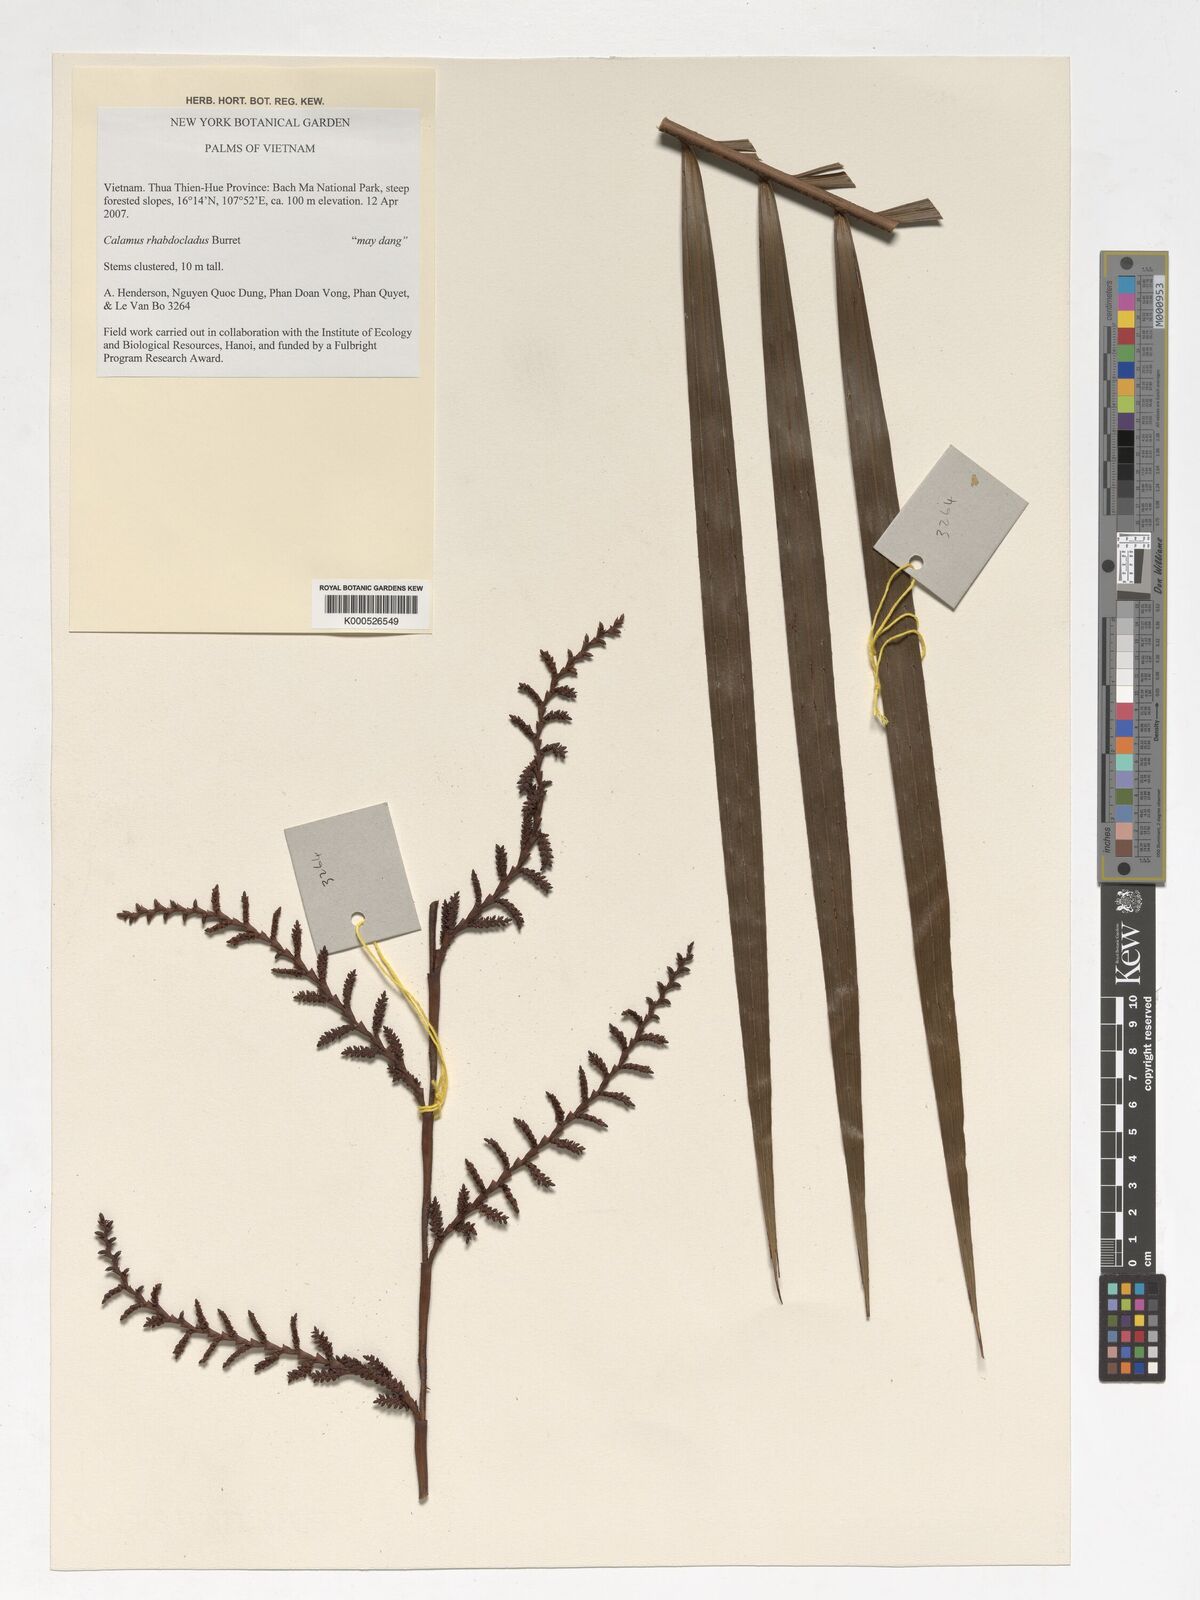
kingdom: Plantae
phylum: Tracheophyta
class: Liliopsida
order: Arecales
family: Arecaceae
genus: Calamus
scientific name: Calamus rhabdocladus
